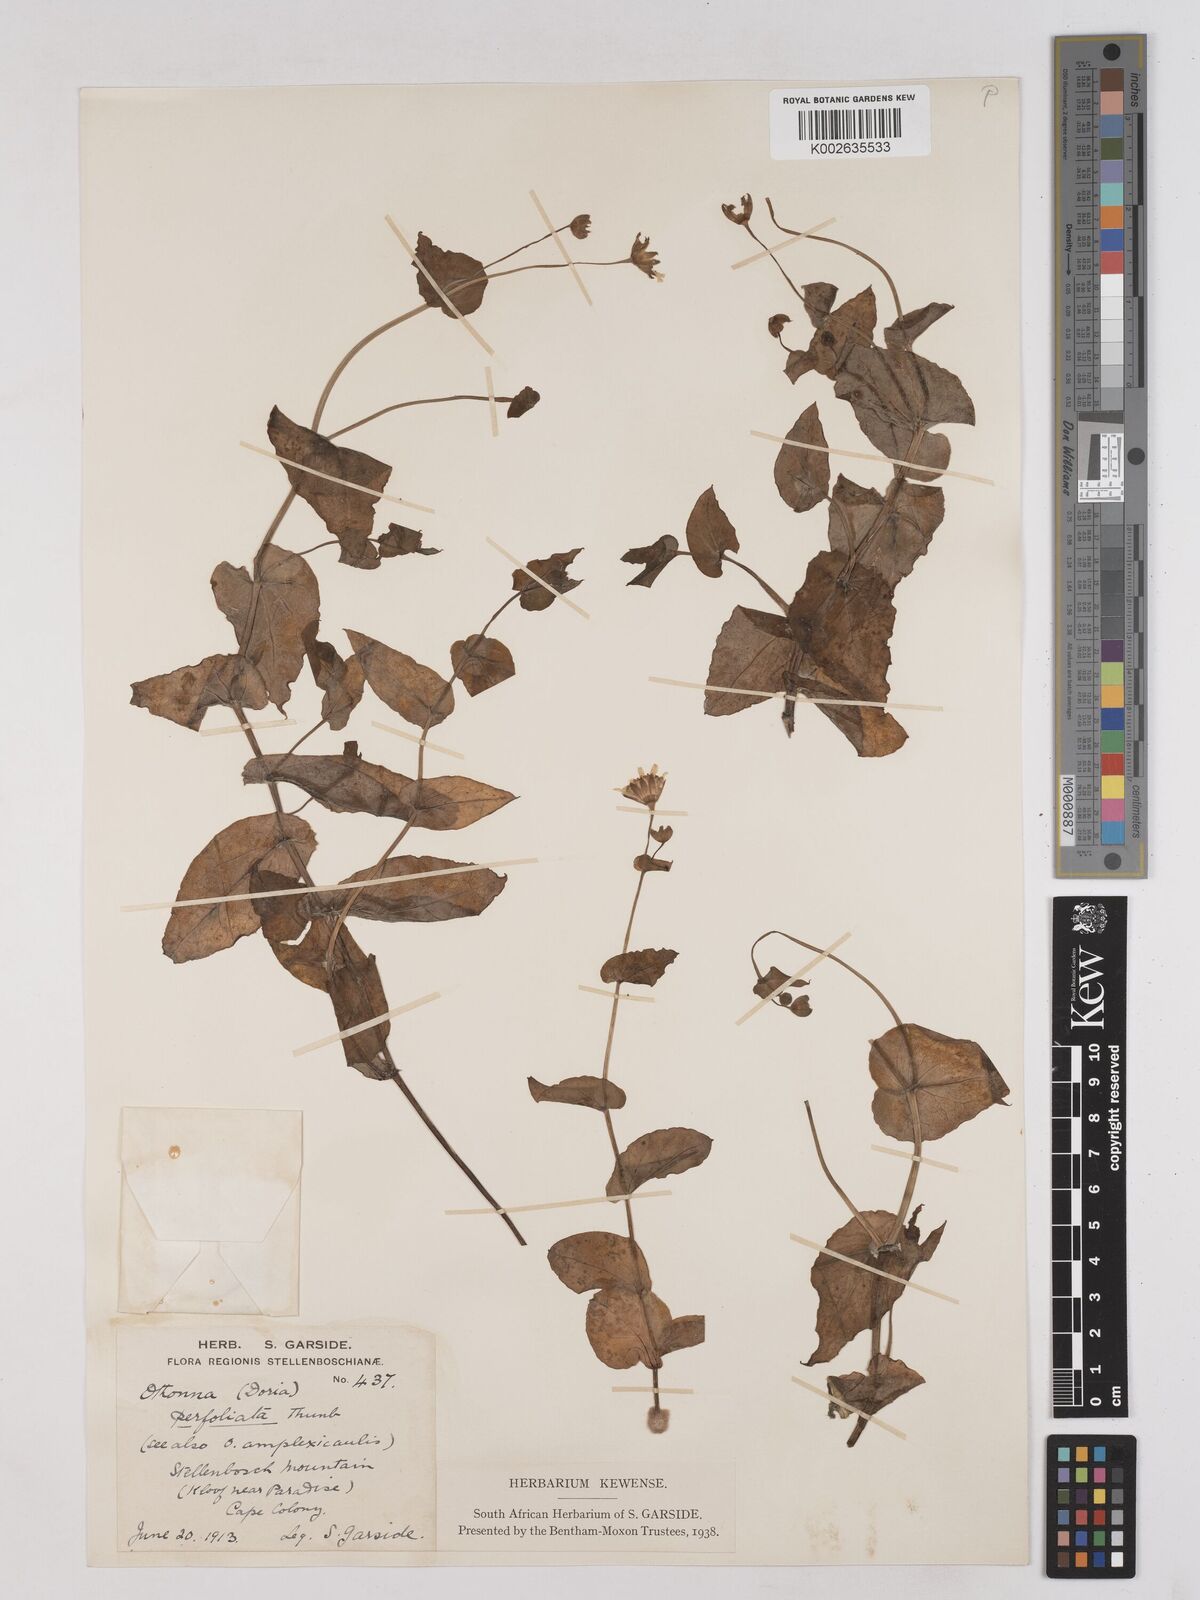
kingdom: Plantae
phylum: Tracheophyta
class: Magnoliopsida
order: Asterales
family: Asteraceae
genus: Othonna
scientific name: Othonna amplexifolia
